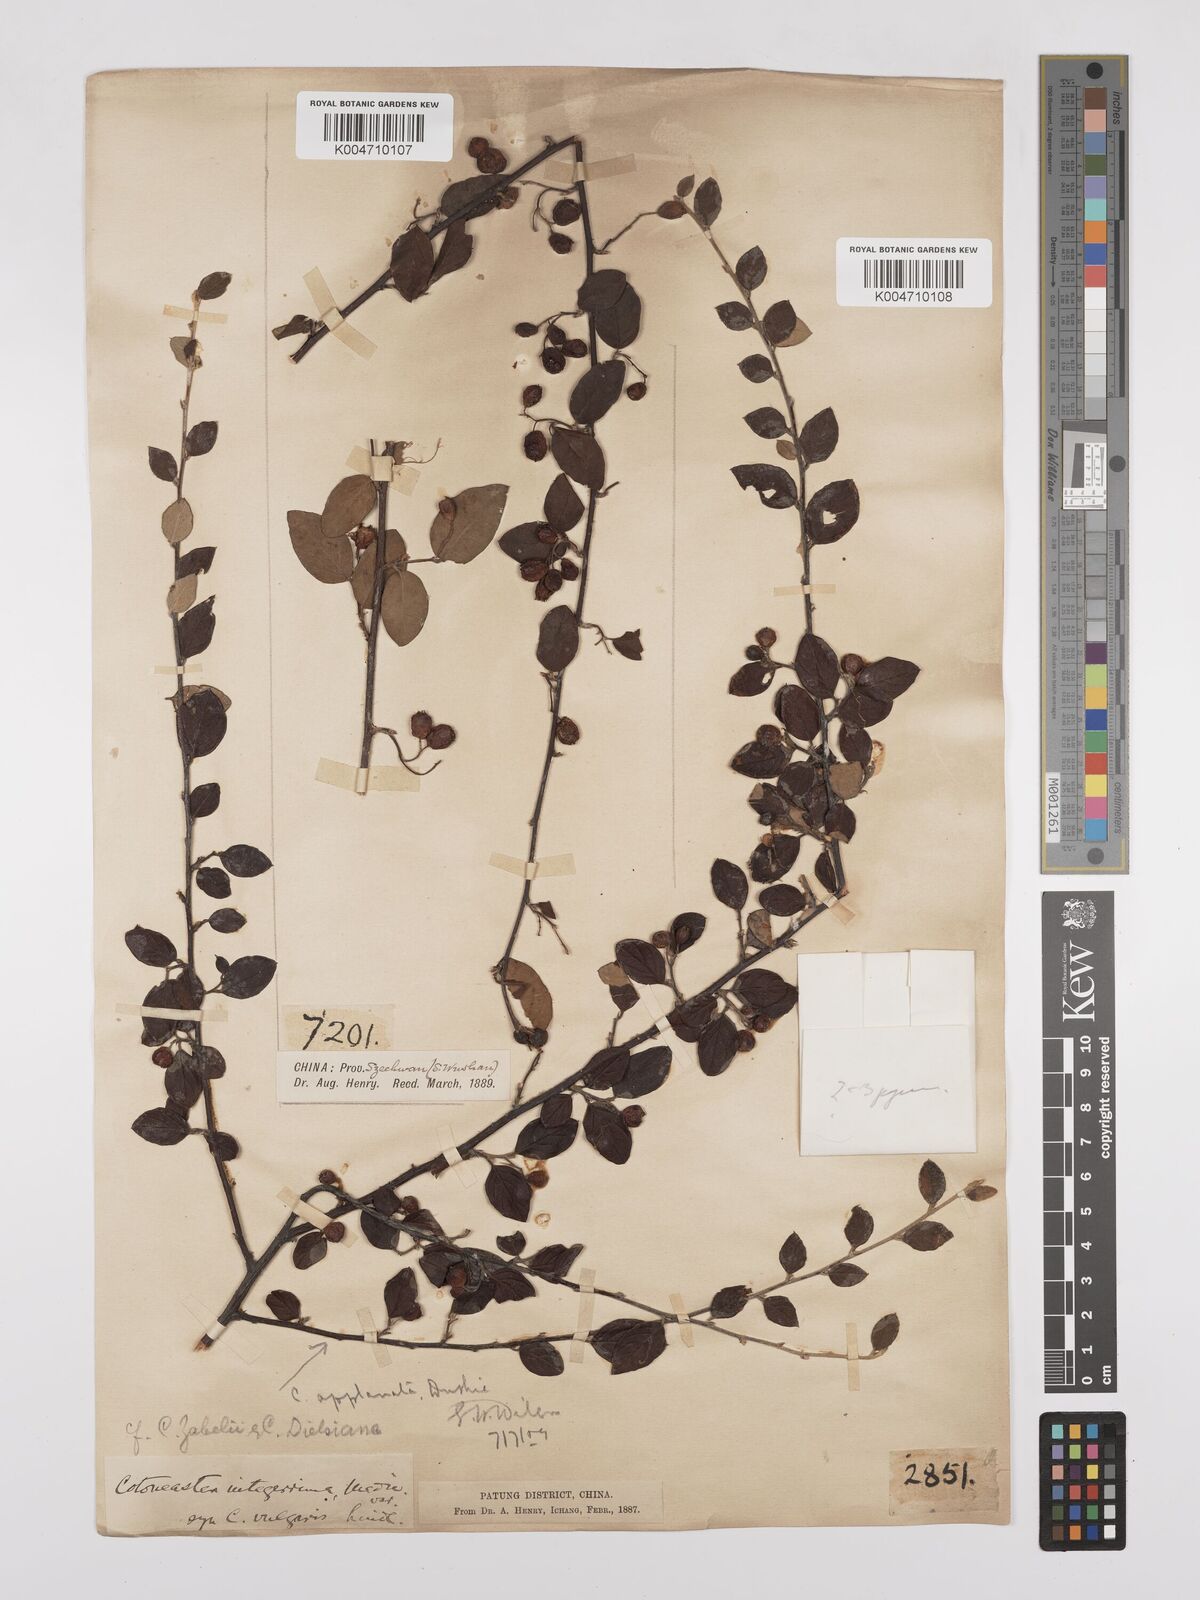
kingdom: Plantae
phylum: Tracheophyta
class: Magnoliopsida
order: Rosales
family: Rosaceae
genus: Cotoneaster
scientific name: Cotoneaster dielsianus
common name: Diels's cotoneaster
